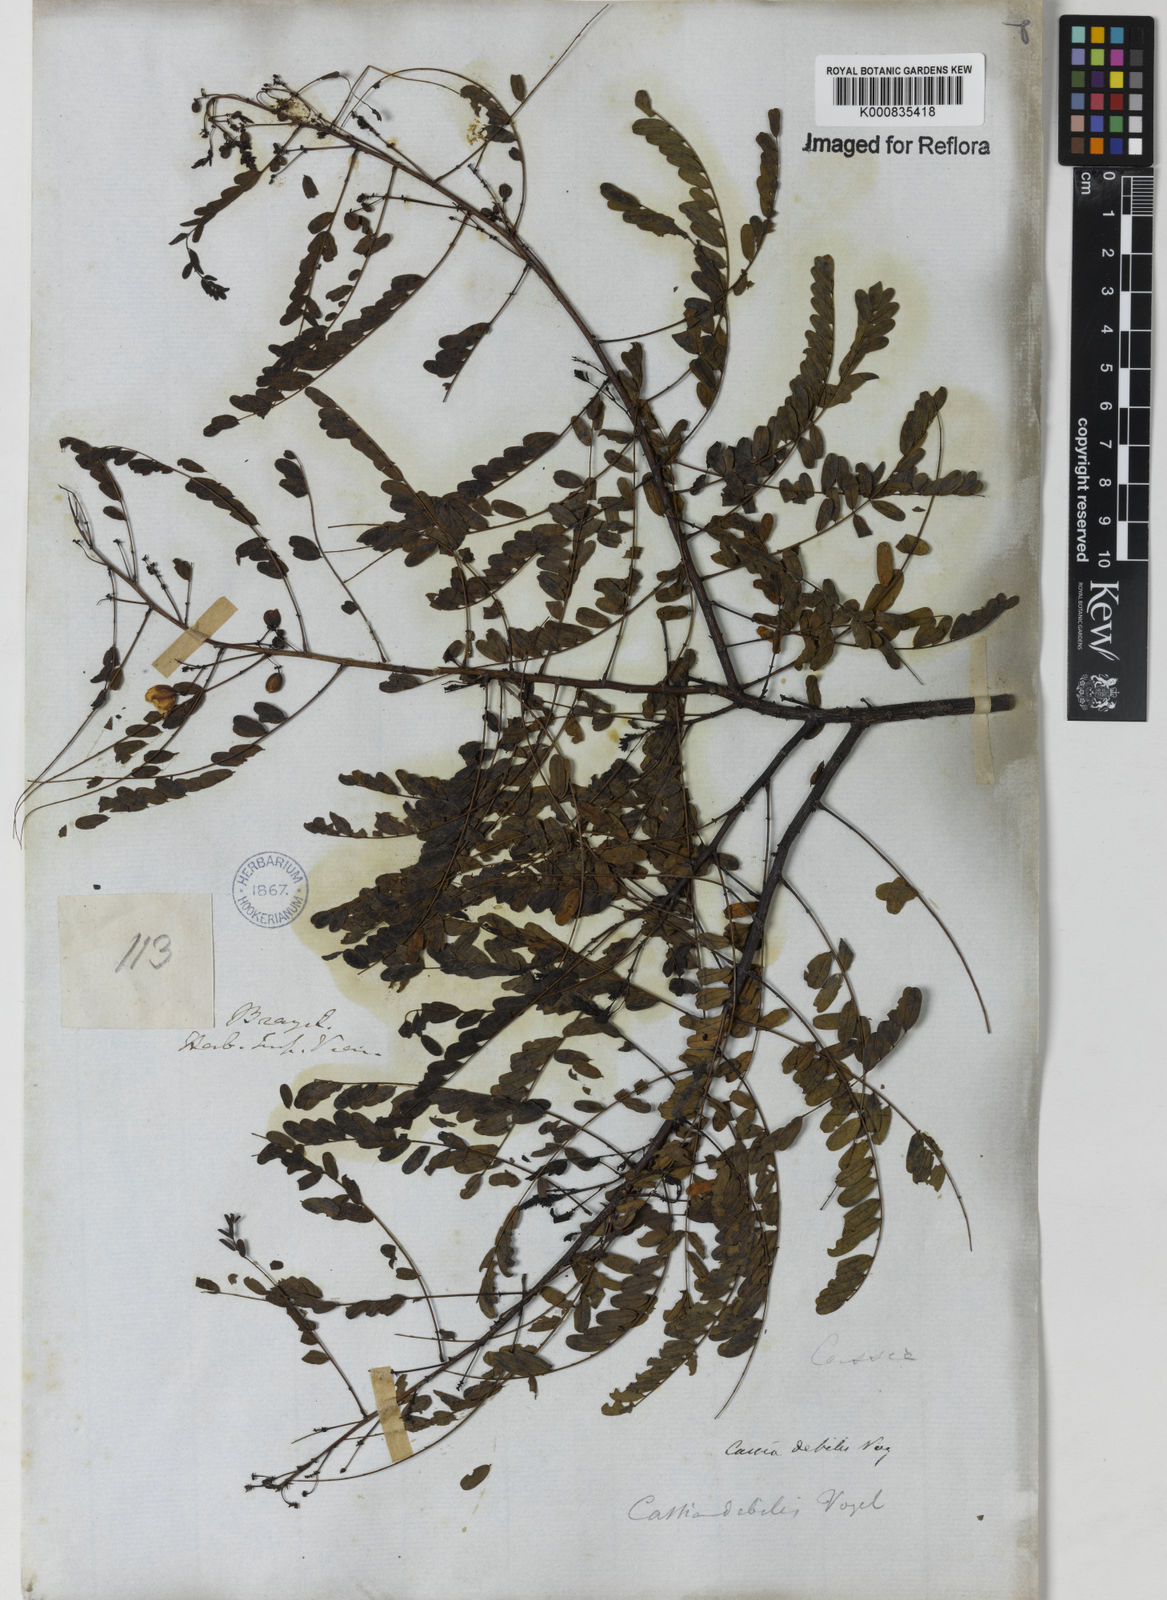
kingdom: Plantae
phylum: Tracheophyta
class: Magnoliopsida
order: Fabales
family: Fabaceae
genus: Chamaecrista
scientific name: Chamaecrista debilis
